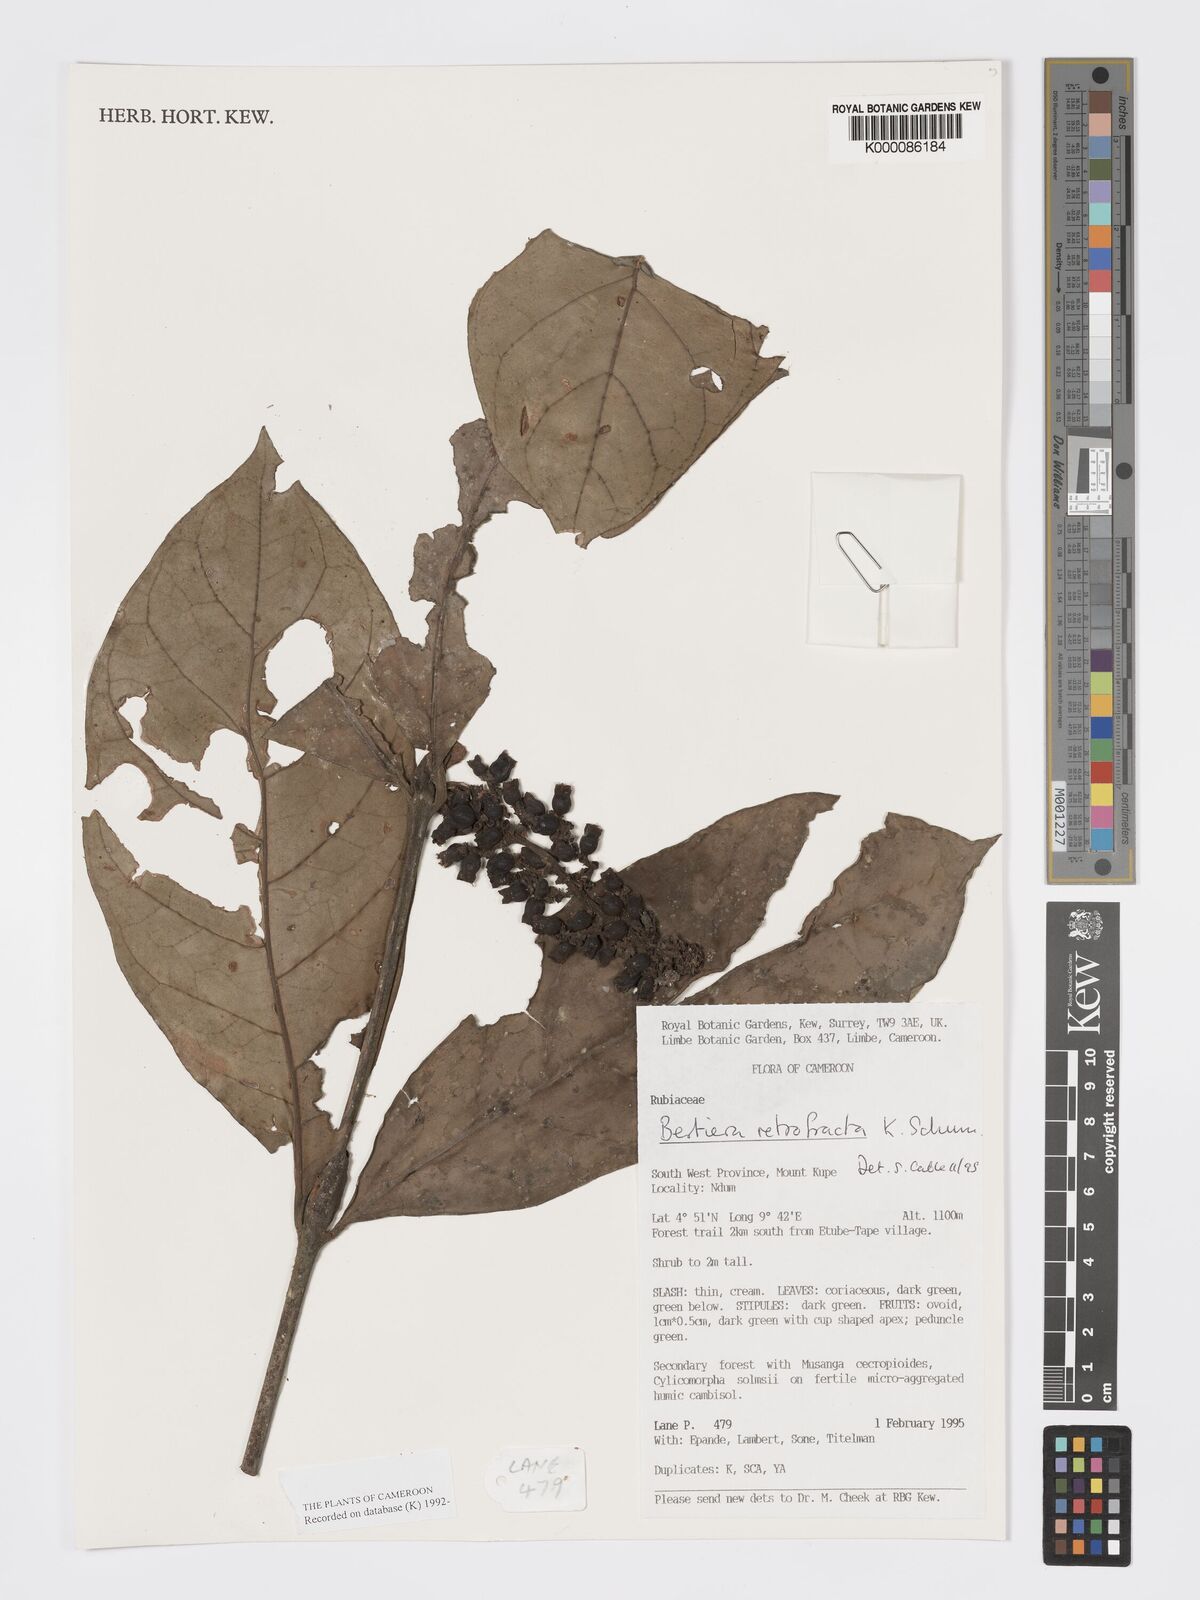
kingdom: Plantae
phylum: Tracheophyta
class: Magnoliopsida
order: Gentianales
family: Rubiaceae
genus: Bertiera
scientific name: Bertiera retrofracta
